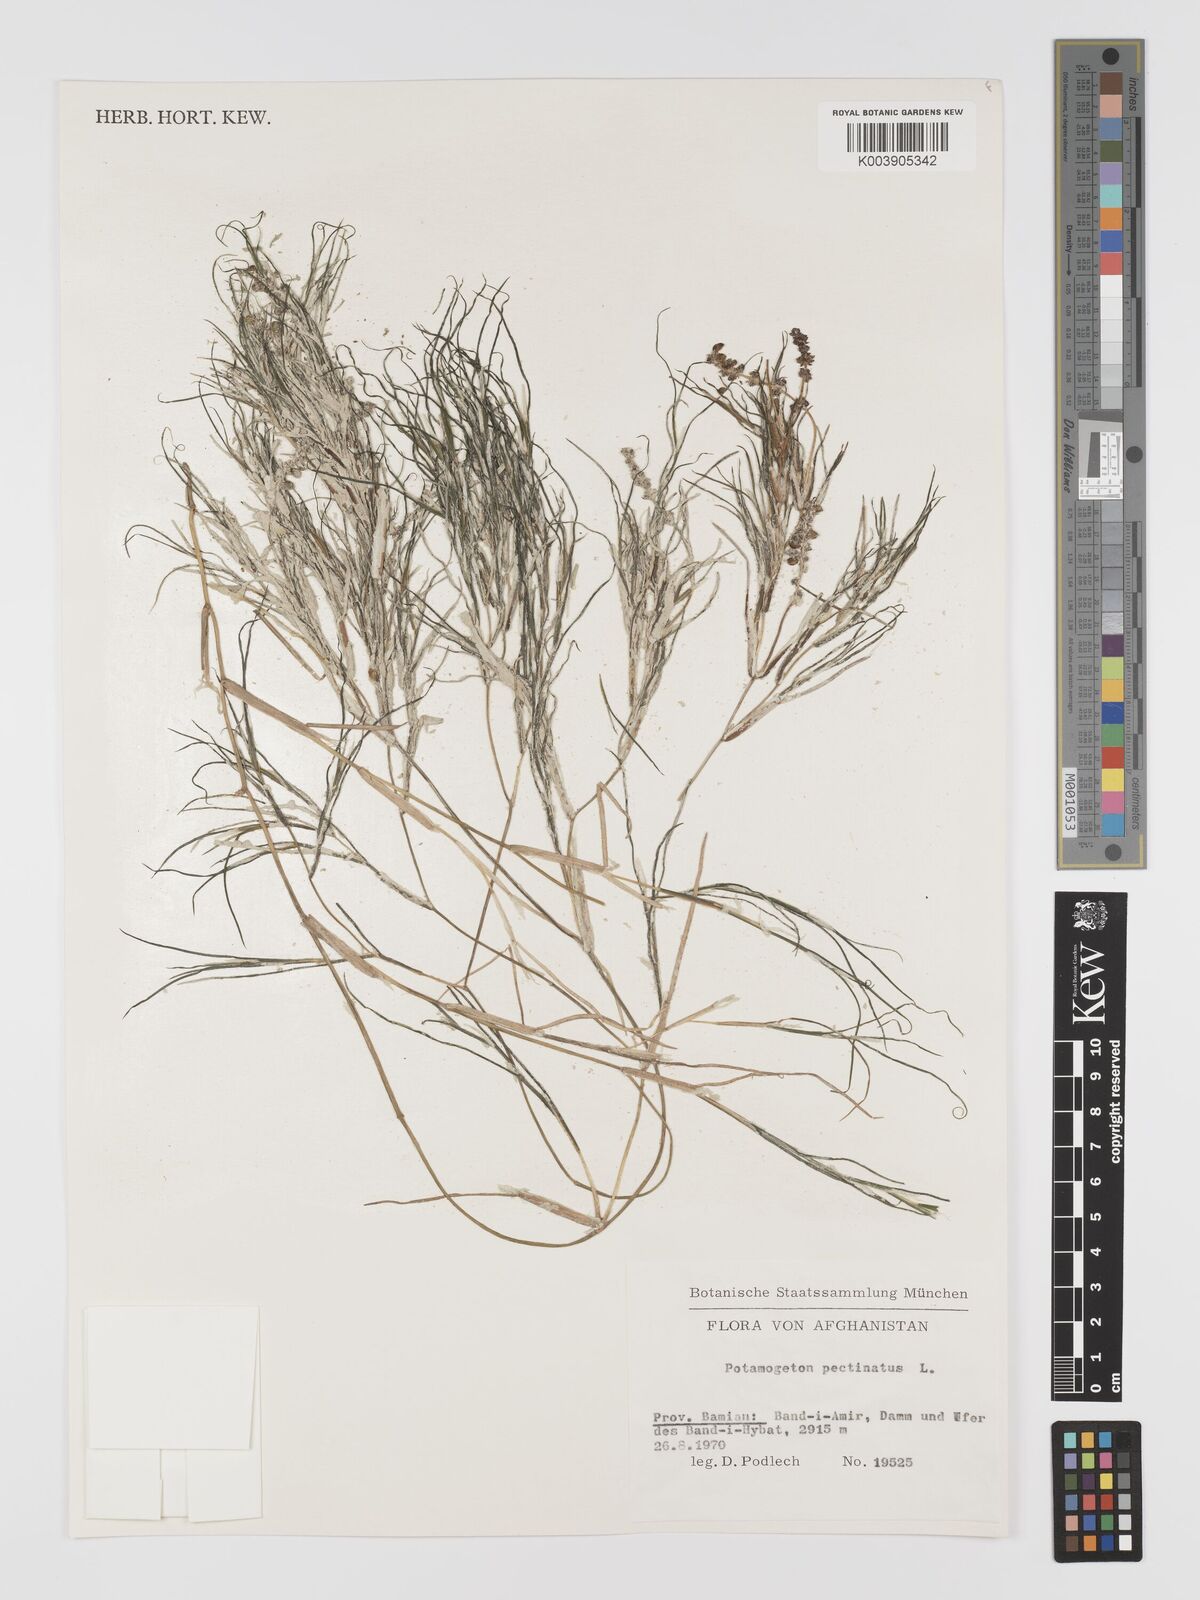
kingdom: Plantae
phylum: Tracheophyta
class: Liliopsida
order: Alismatales
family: Potamogetonaceae
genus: Stuckenia
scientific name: Stuckenia pectinata
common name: Sago pondweed
